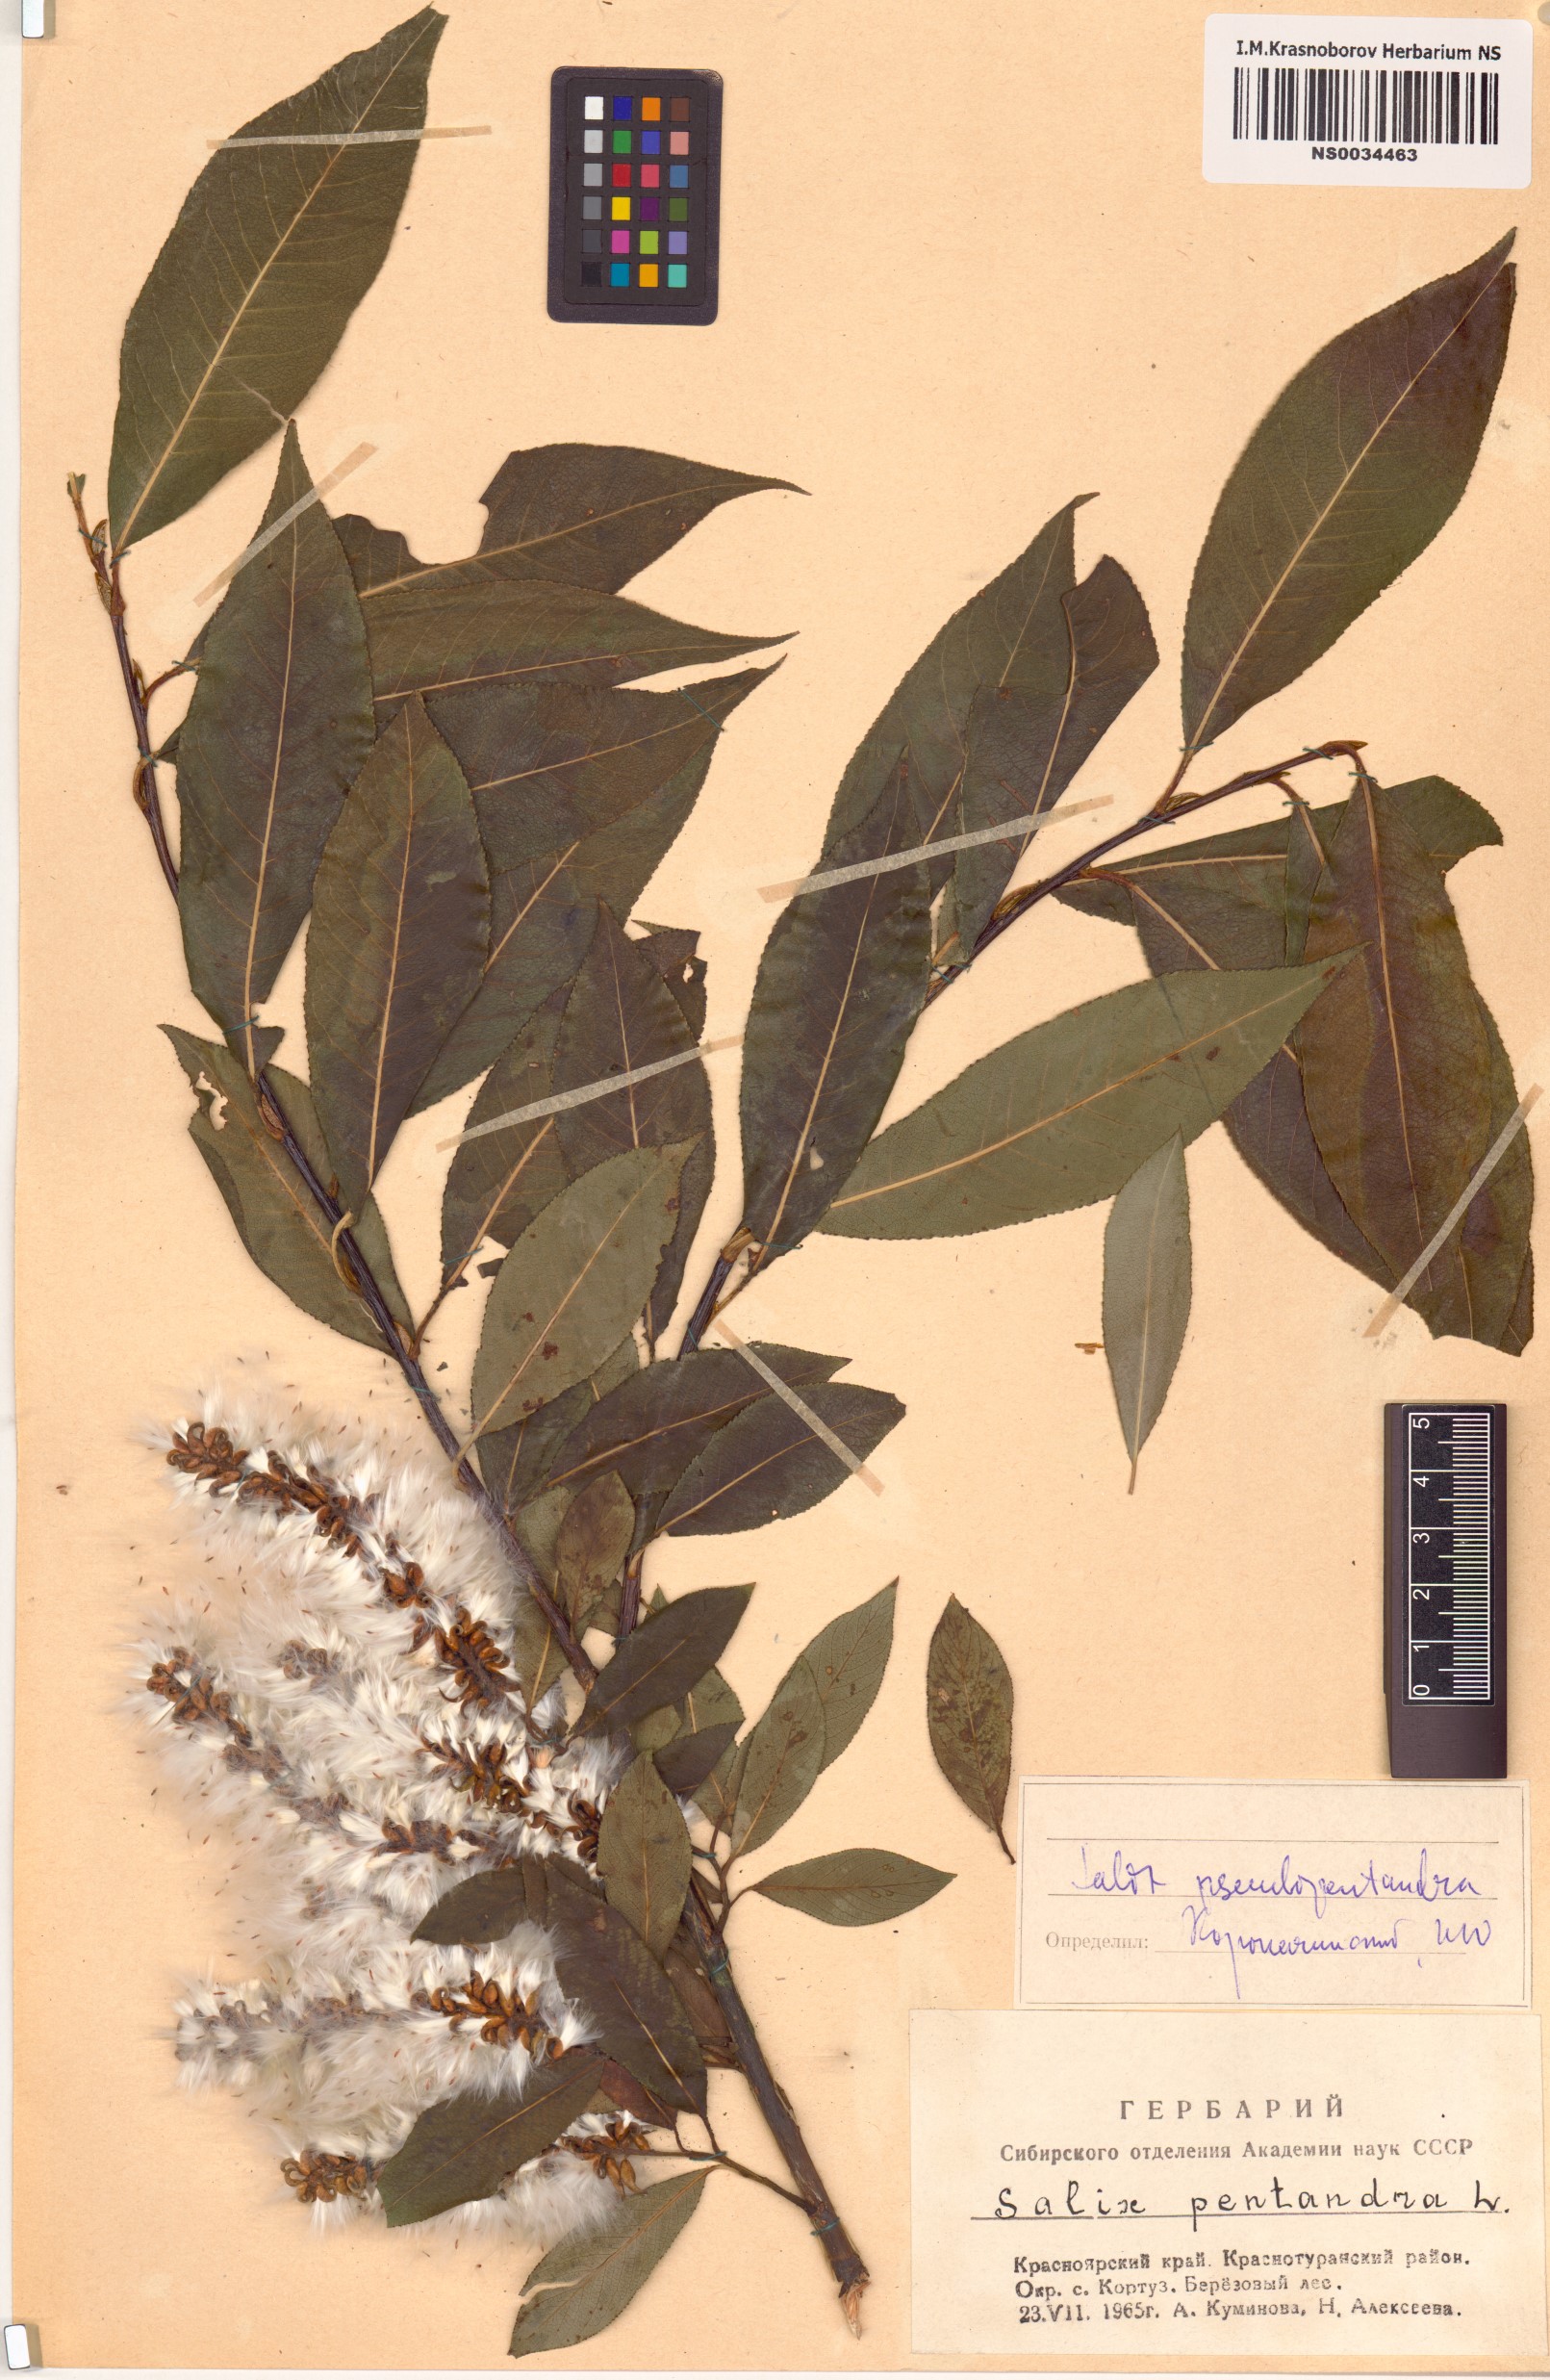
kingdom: Plantae
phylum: Tracheophyta
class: Magnoliopsida
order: Malpighiales
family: Salicaceae
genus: Salix
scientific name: Salix pseudopentandra
